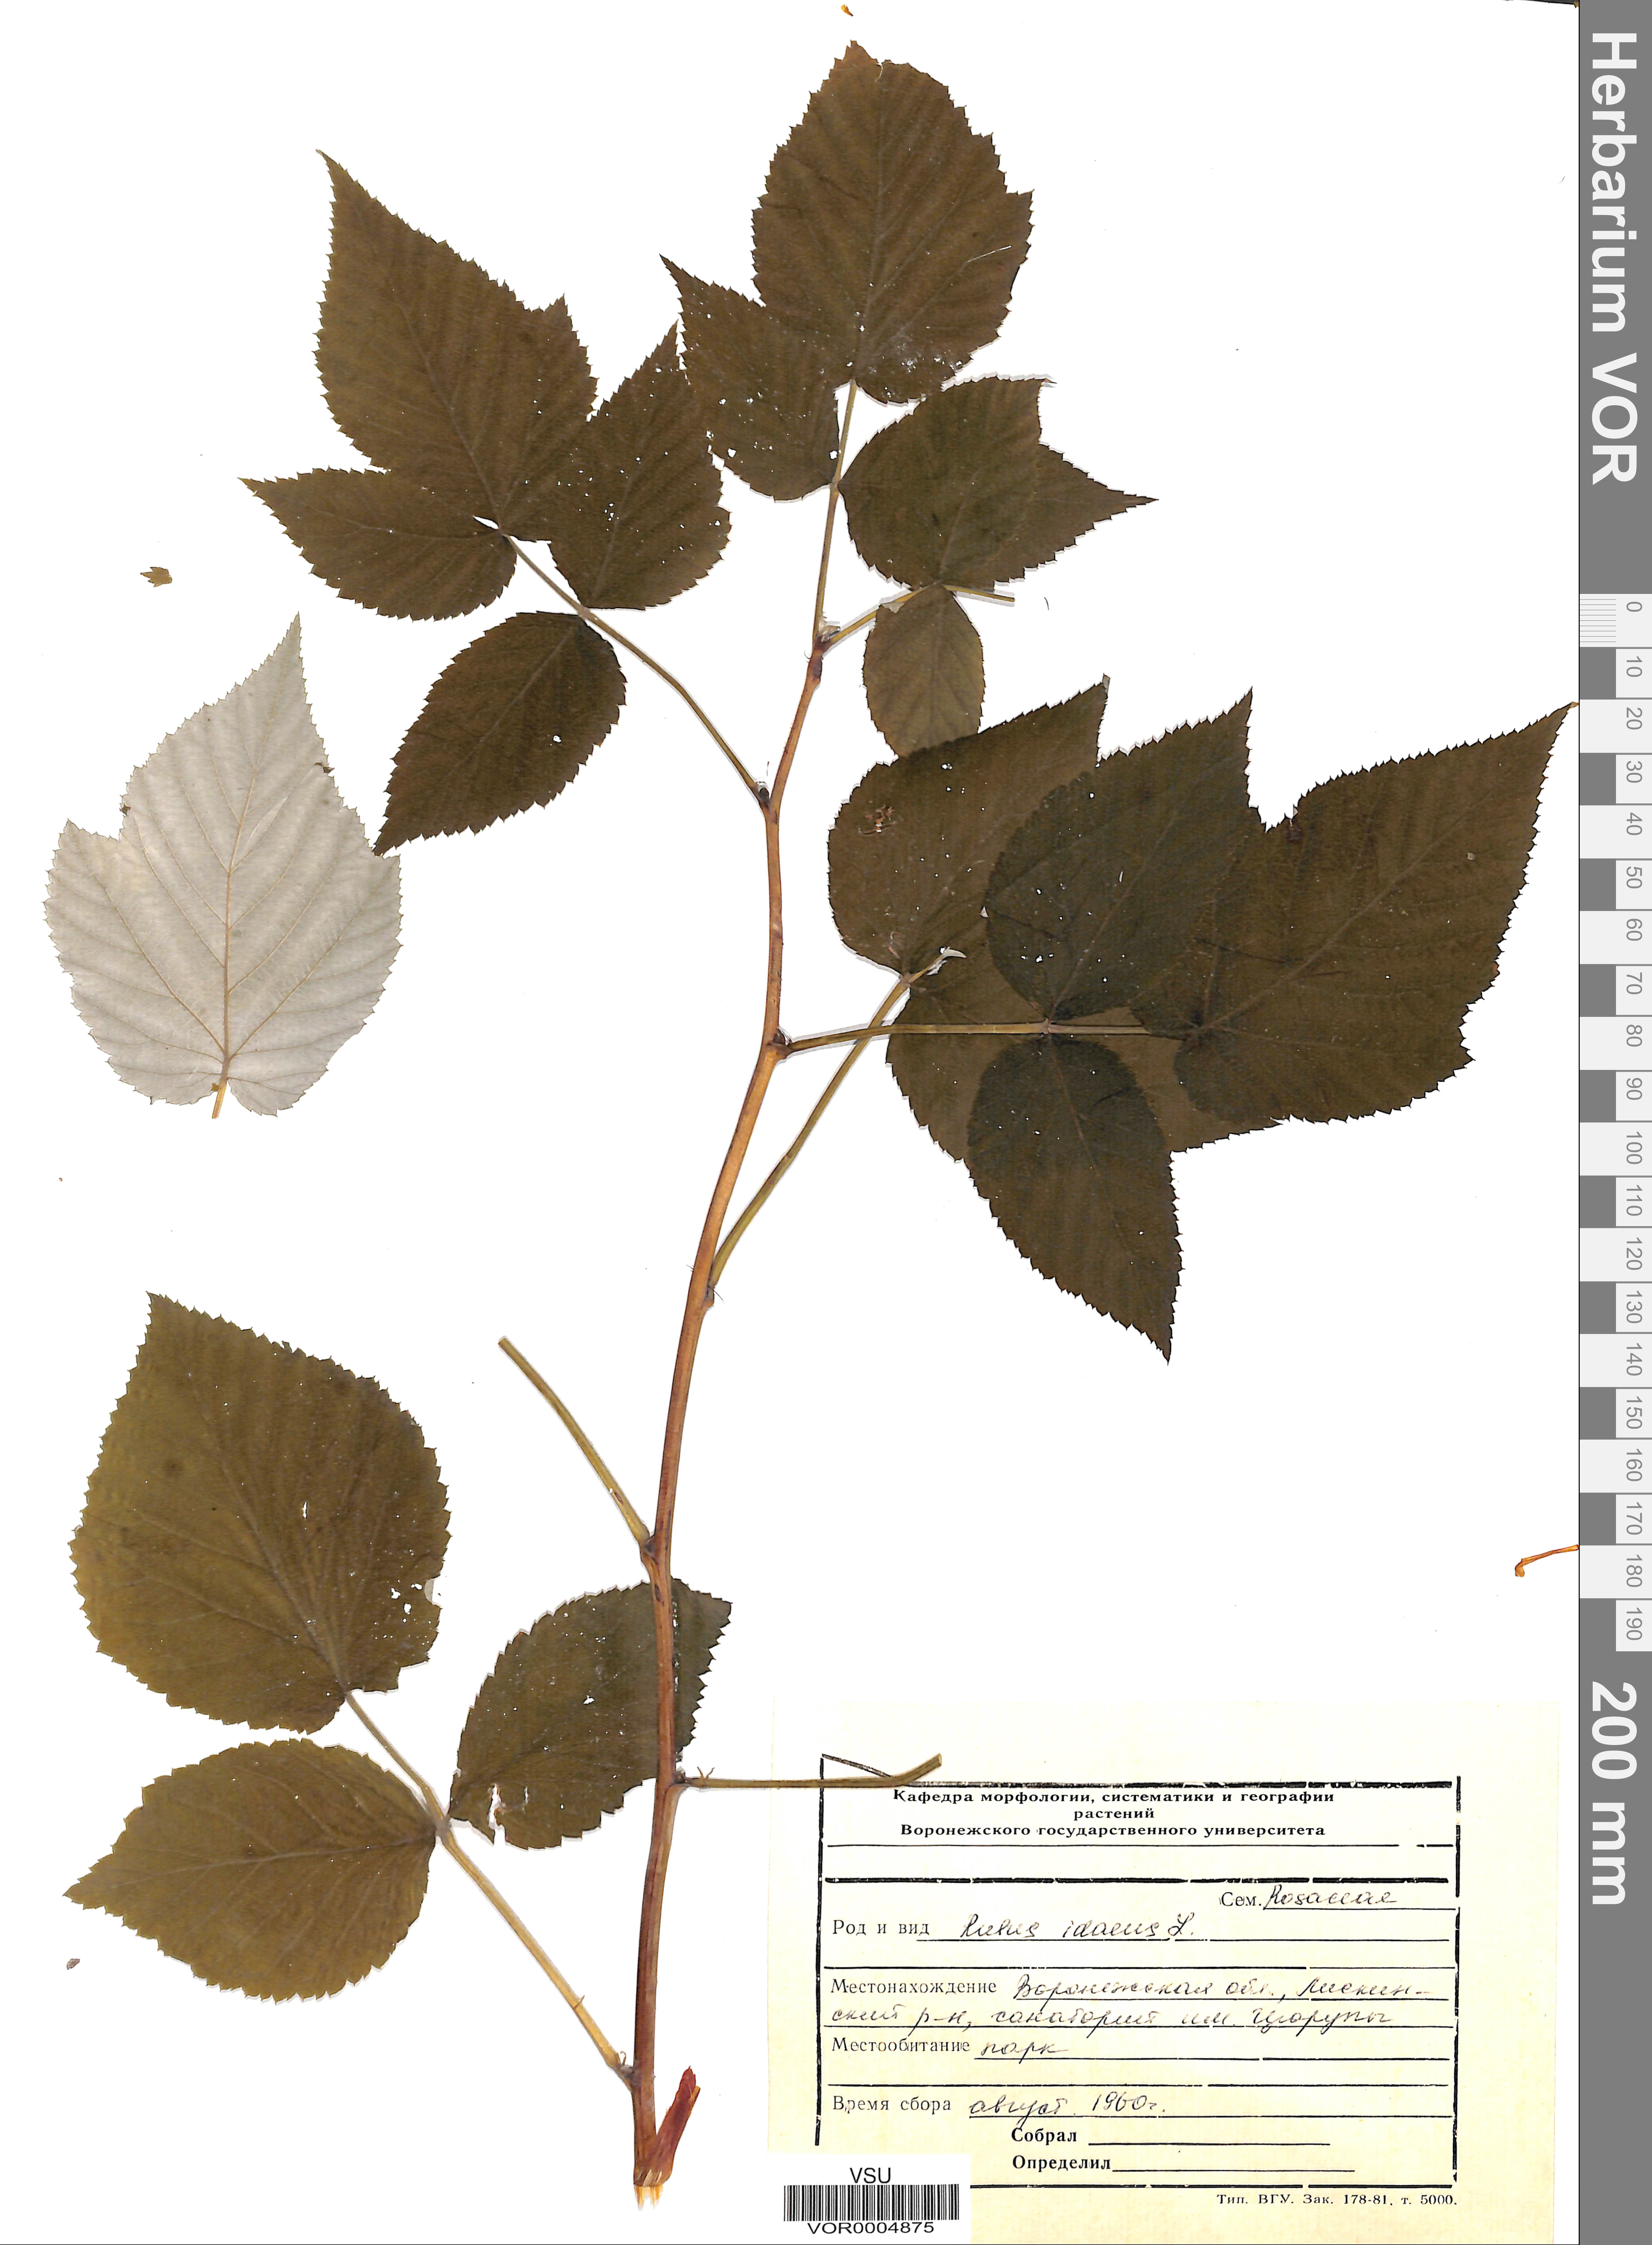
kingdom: Plantae
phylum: Tracheophyta
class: Magnoliopsida
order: Rosales
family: Rosaceae
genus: Rubus
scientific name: Rubus idaeus
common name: Raspberry
